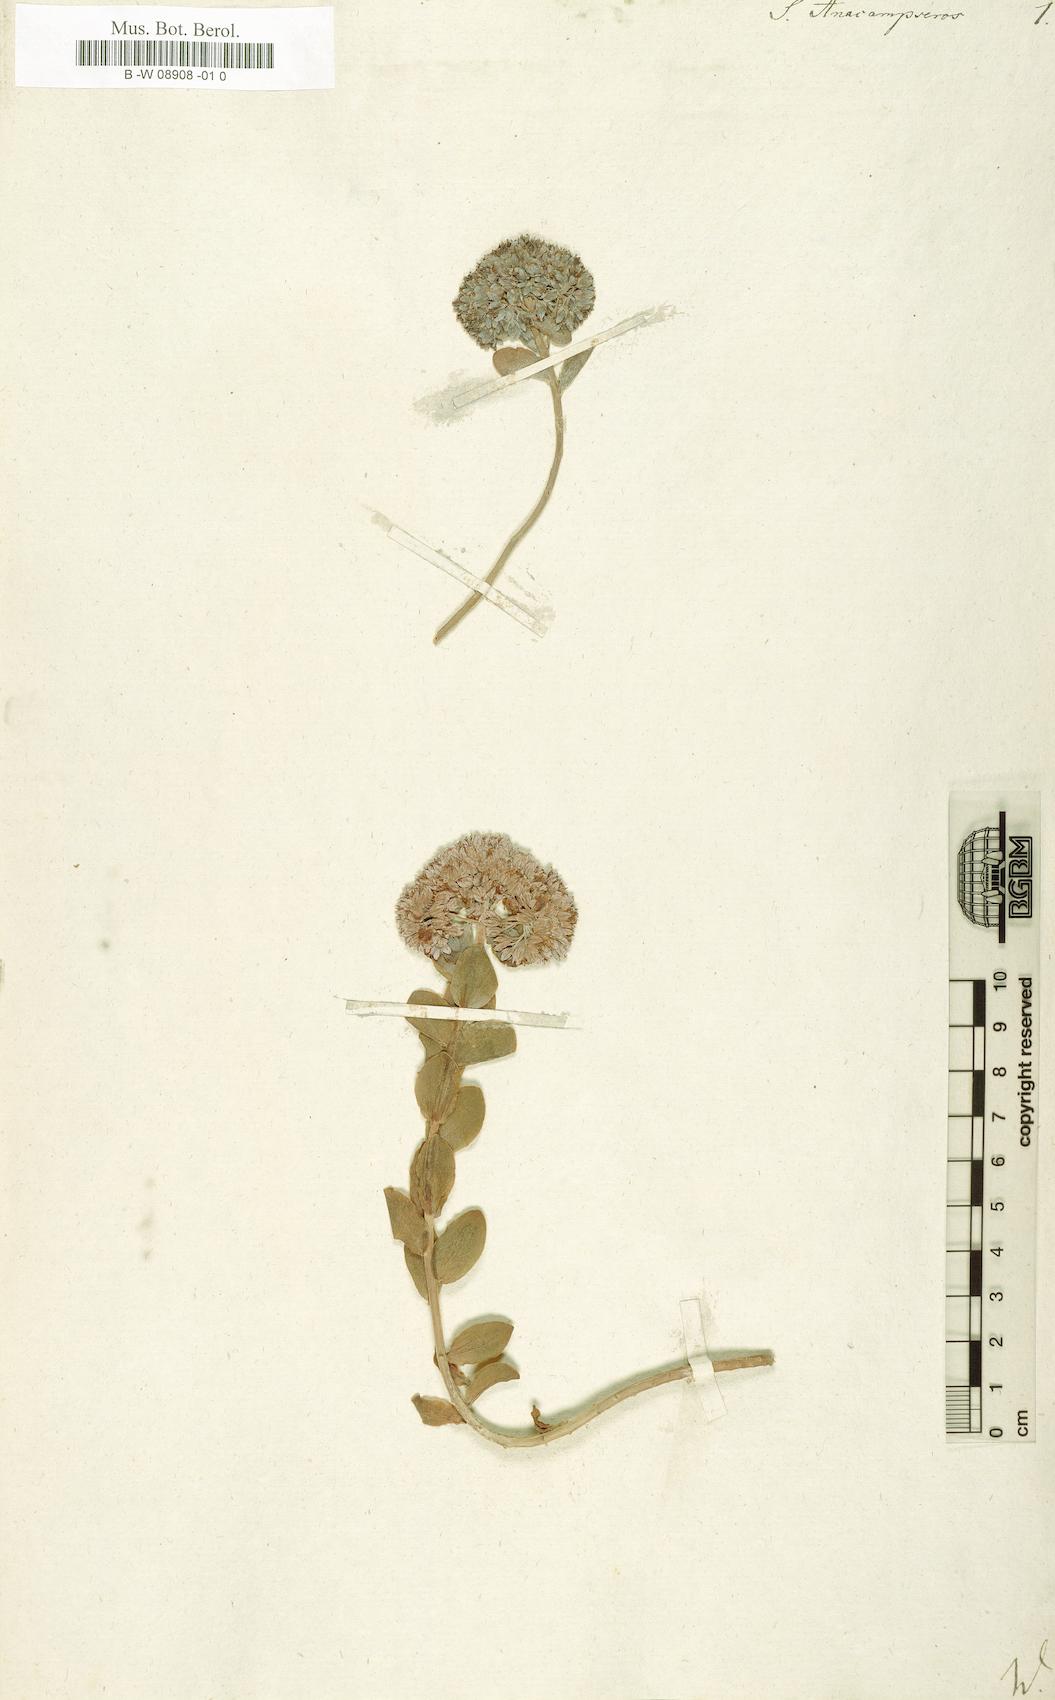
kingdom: Plantae
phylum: Tracheophyta
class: Magnoliopsida
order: Saxifragales
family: Crassulaceae
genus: Hylotelephium
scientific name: Hylotelephium anacampseros
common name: Love-restorer
